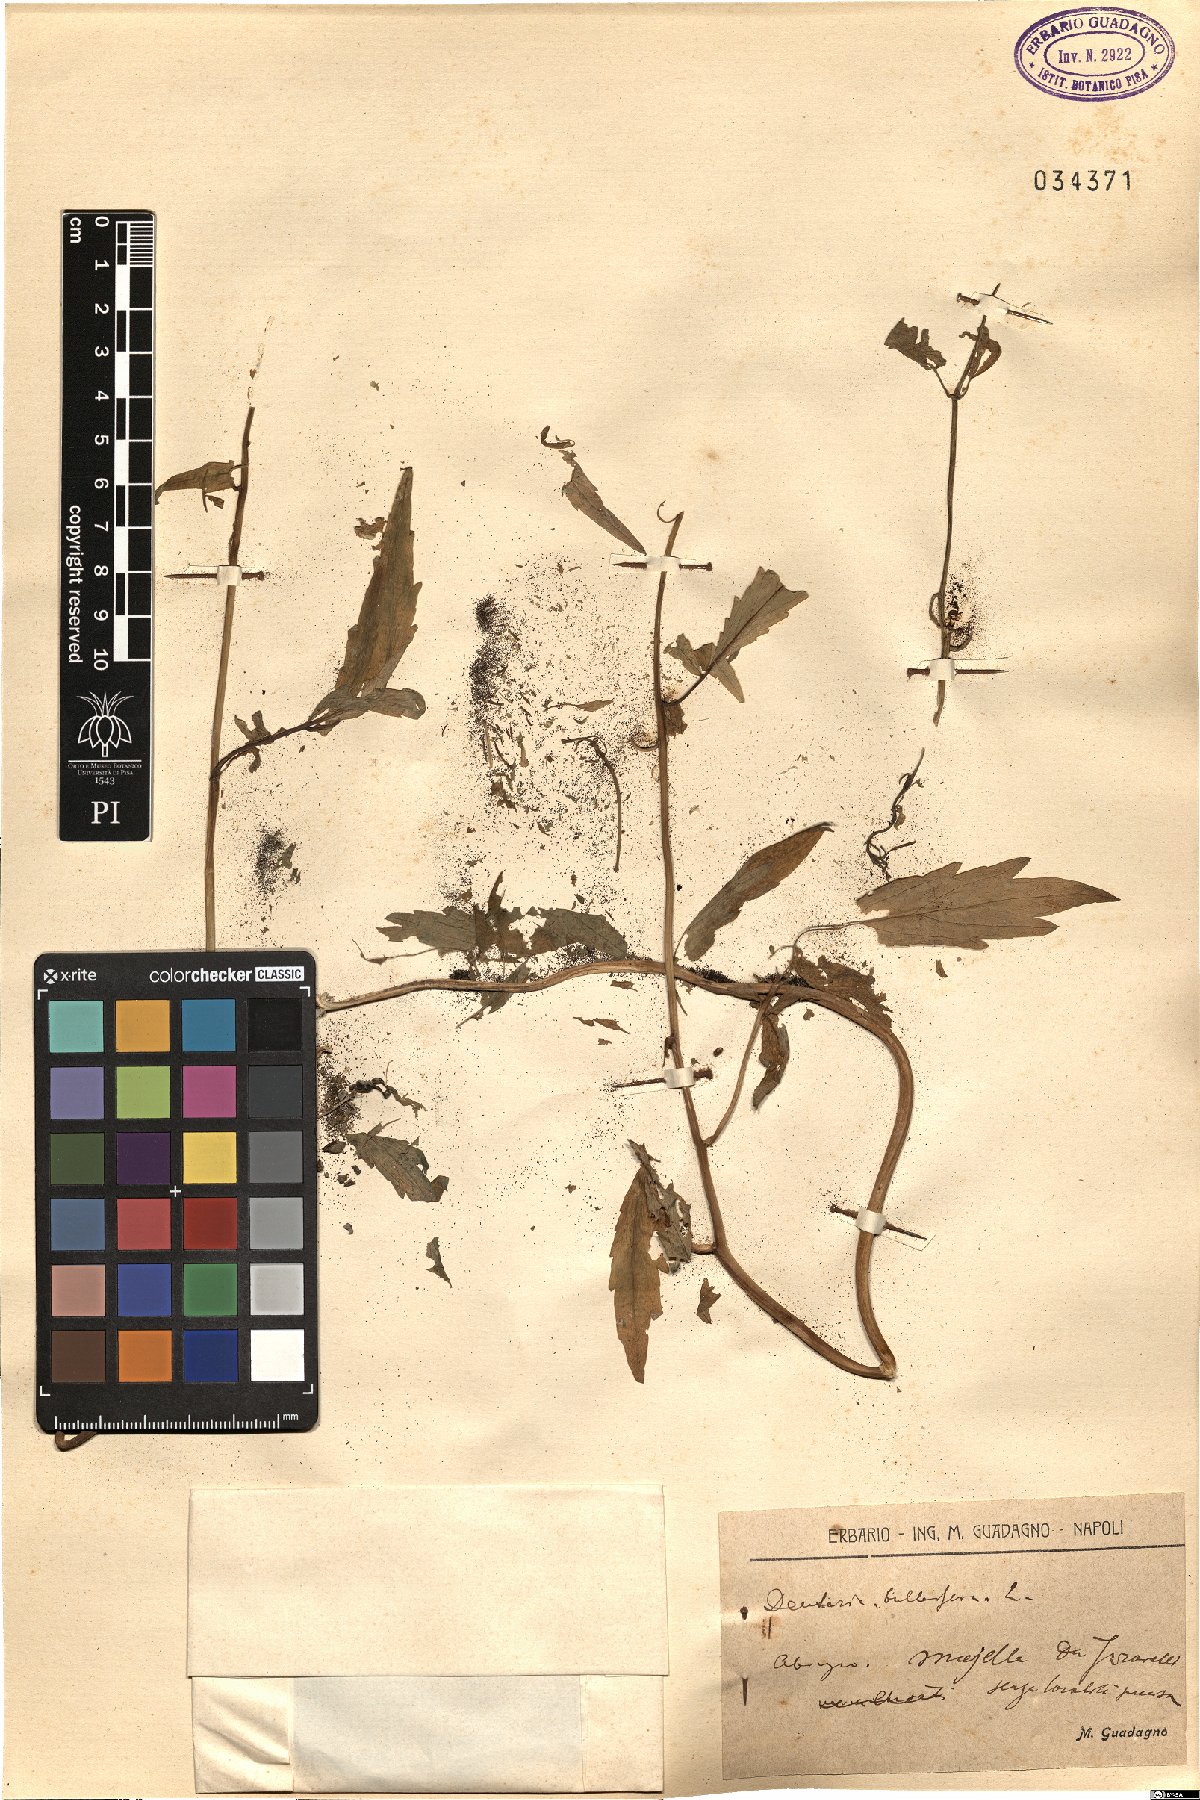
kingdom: Plantae
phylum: Tracheophyta
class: Magnoliopsida
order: Brassicales
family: Brassicaceae
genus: Cardamine
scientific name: Cardamine bulbifera
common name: Coralroot bittercress
